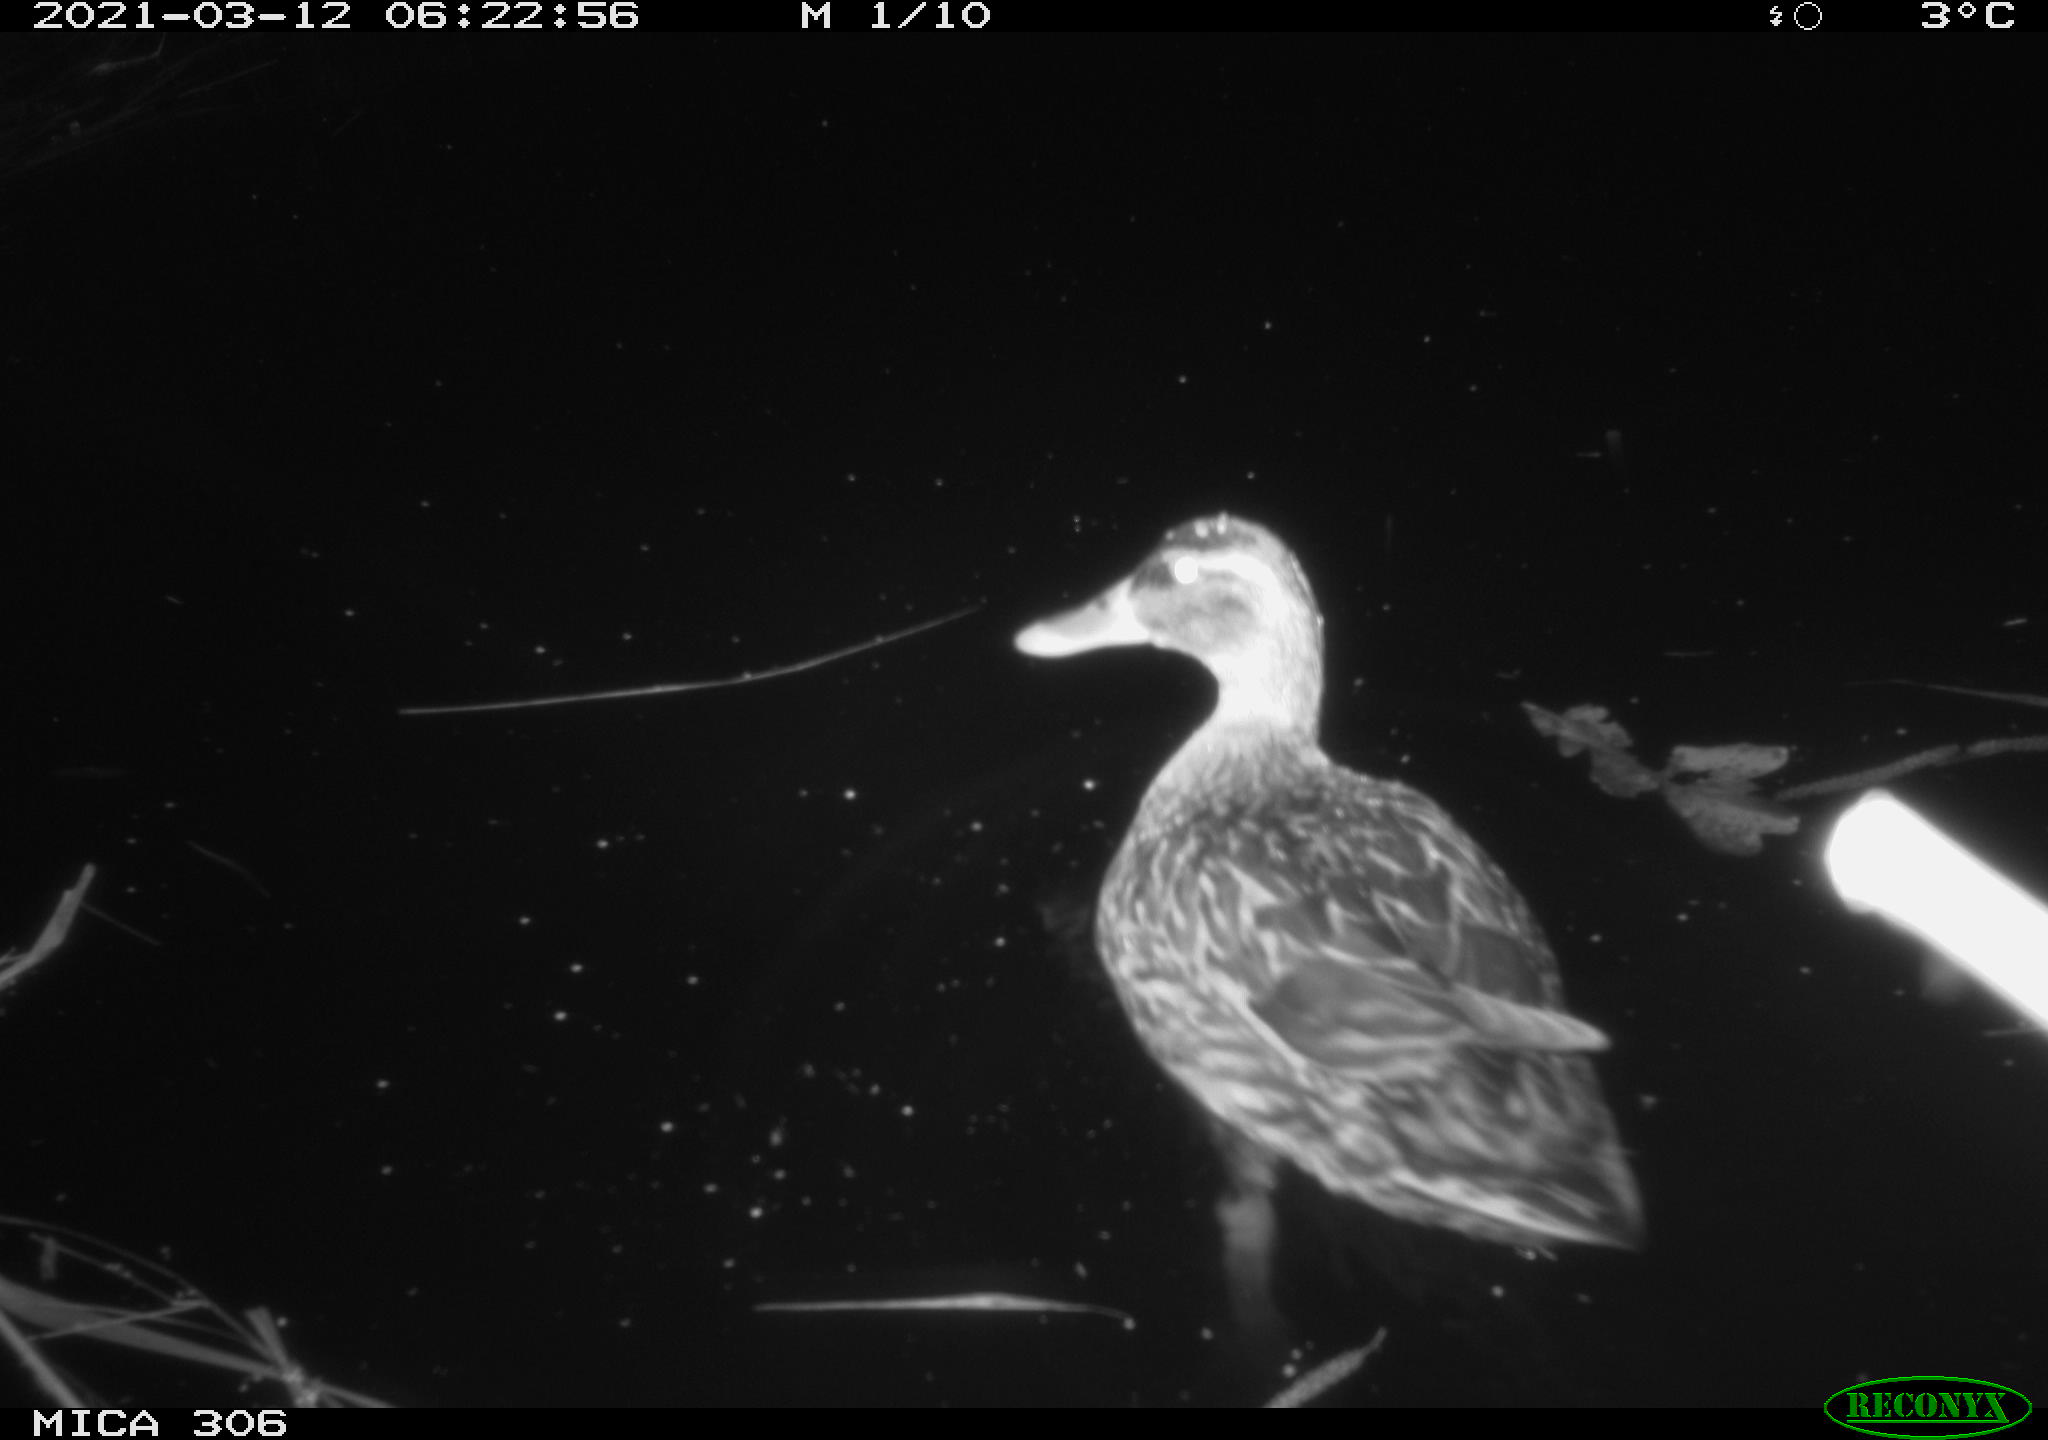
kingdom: Animalia
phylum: Chordata
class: Aves
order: Anseriformes
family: Anatidae
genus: Anas
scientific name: Anas platyrhynchos
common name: Mallard
